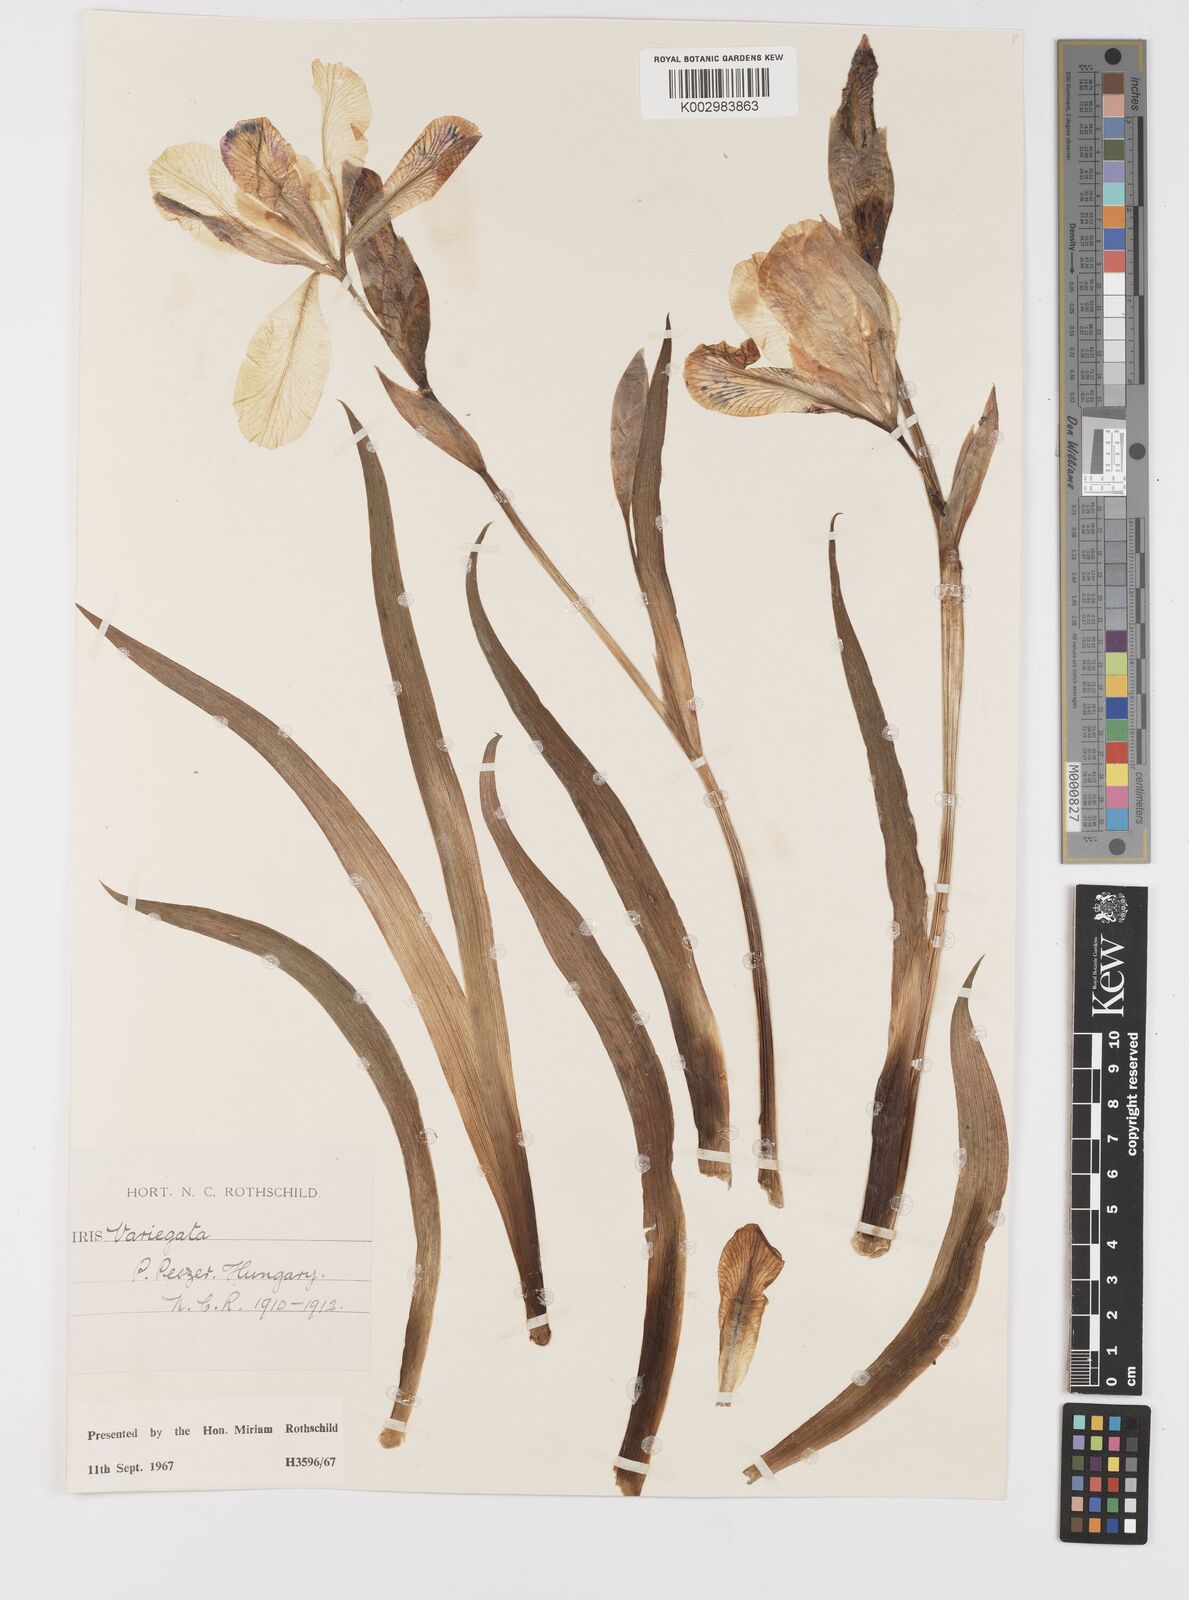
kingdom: Plantae
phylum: Tracheophyta
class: Liliopsida
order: Asparagales
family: Iridaceae
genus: Iris
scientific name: Iris variegata
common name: Hungarian iris
